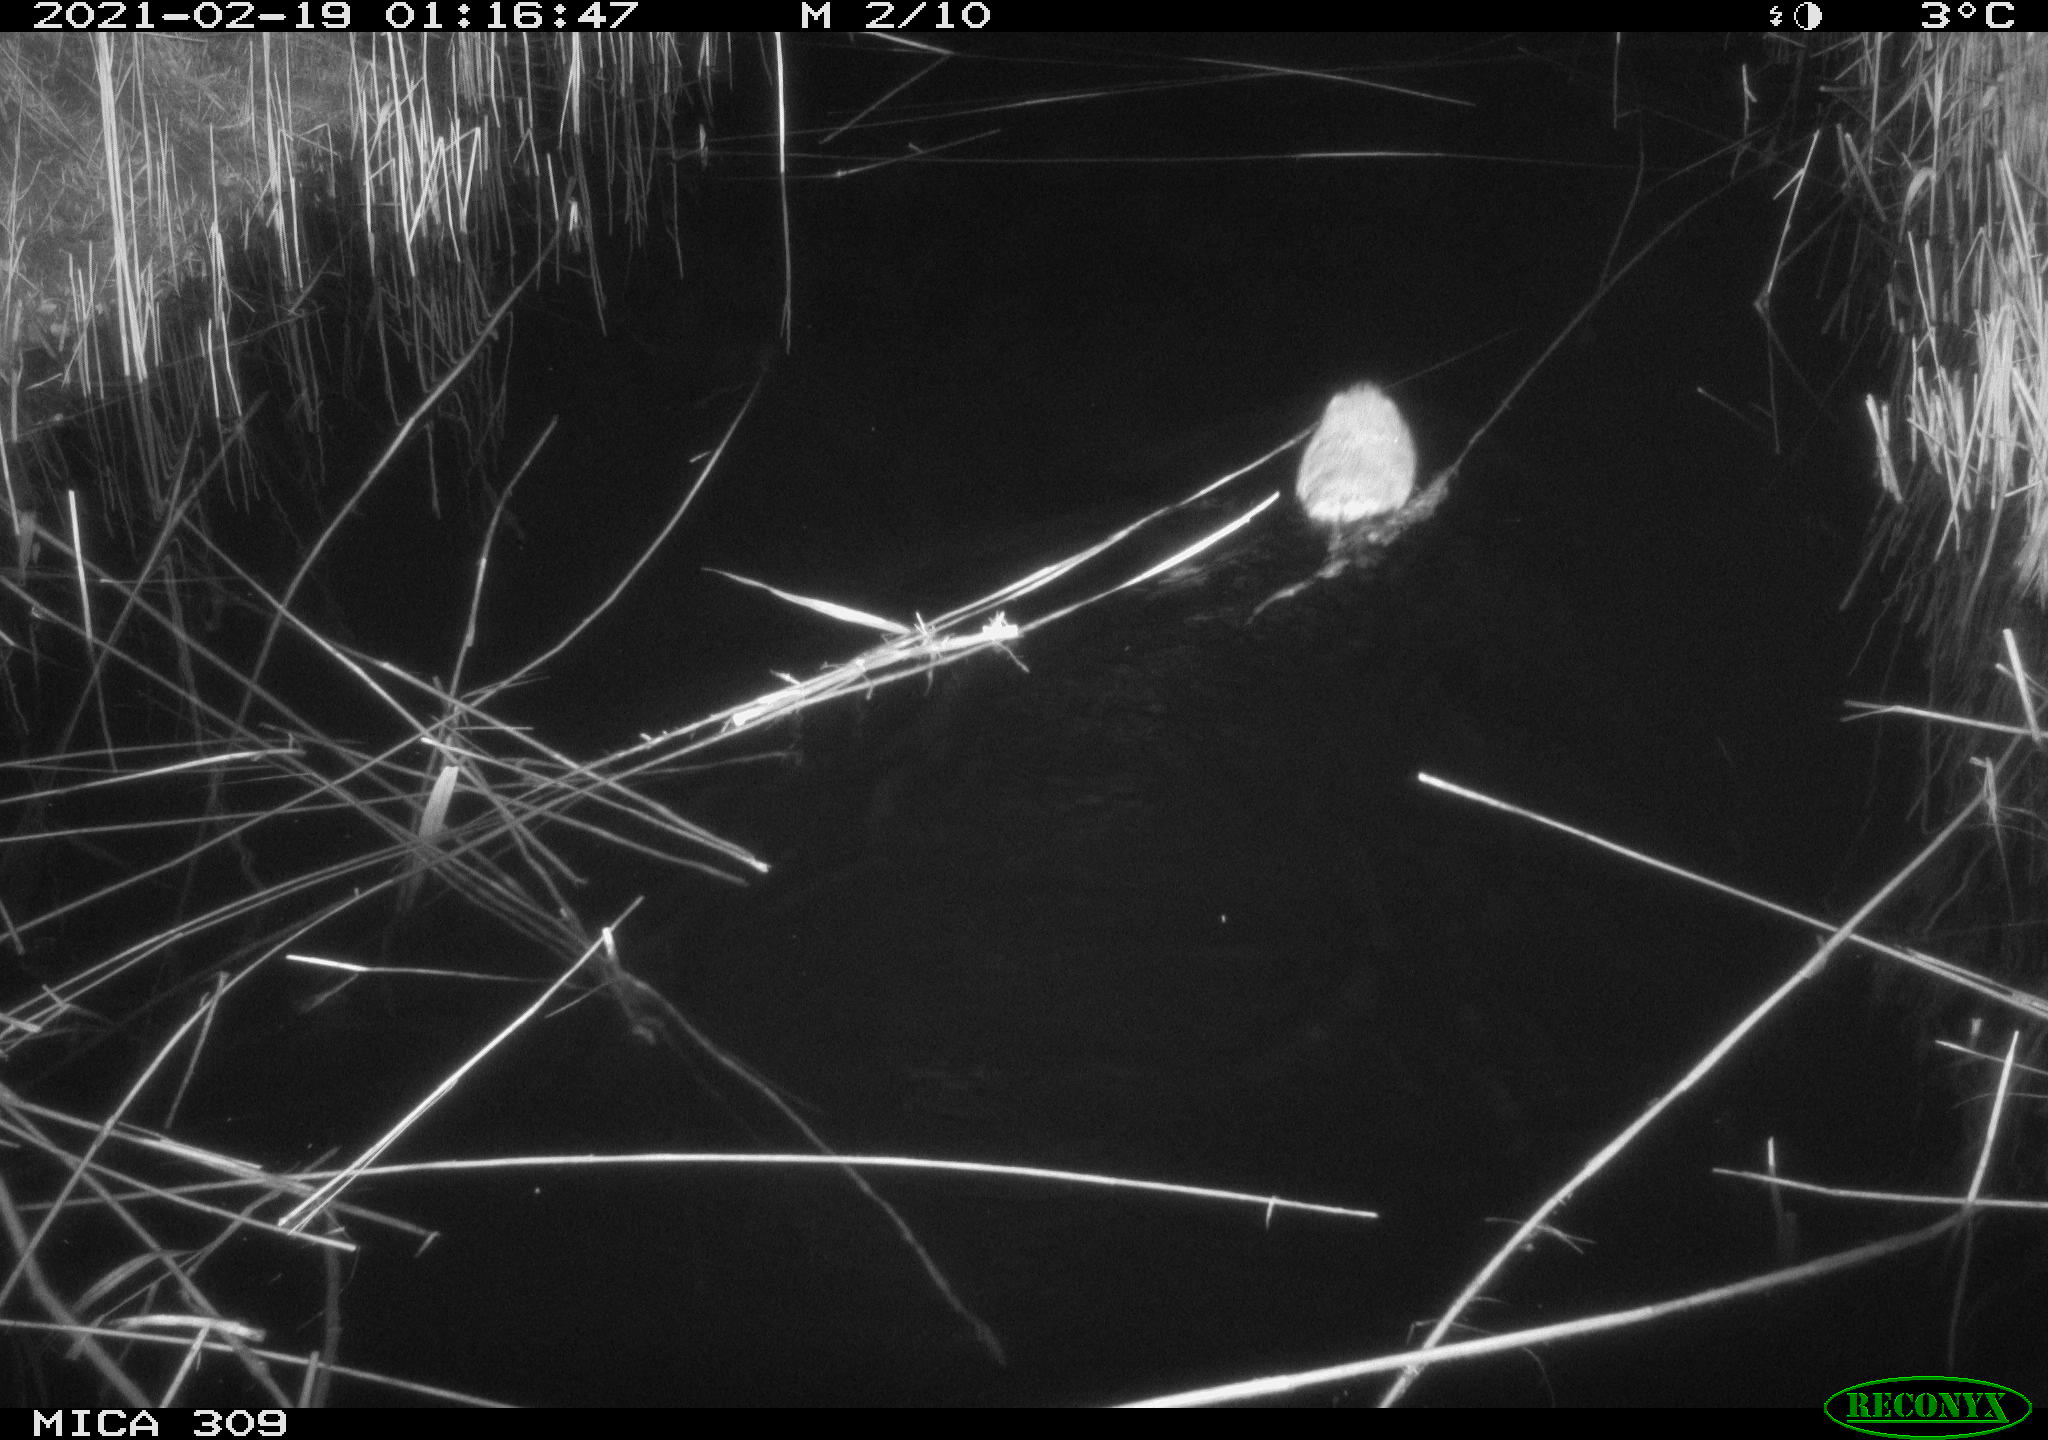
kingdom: Animalia
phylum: Chordata
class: Mammalia
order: Rodentia
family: Cricetidae
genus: Ondatra
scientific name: Ondatra zibethicus
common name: Muskrat
